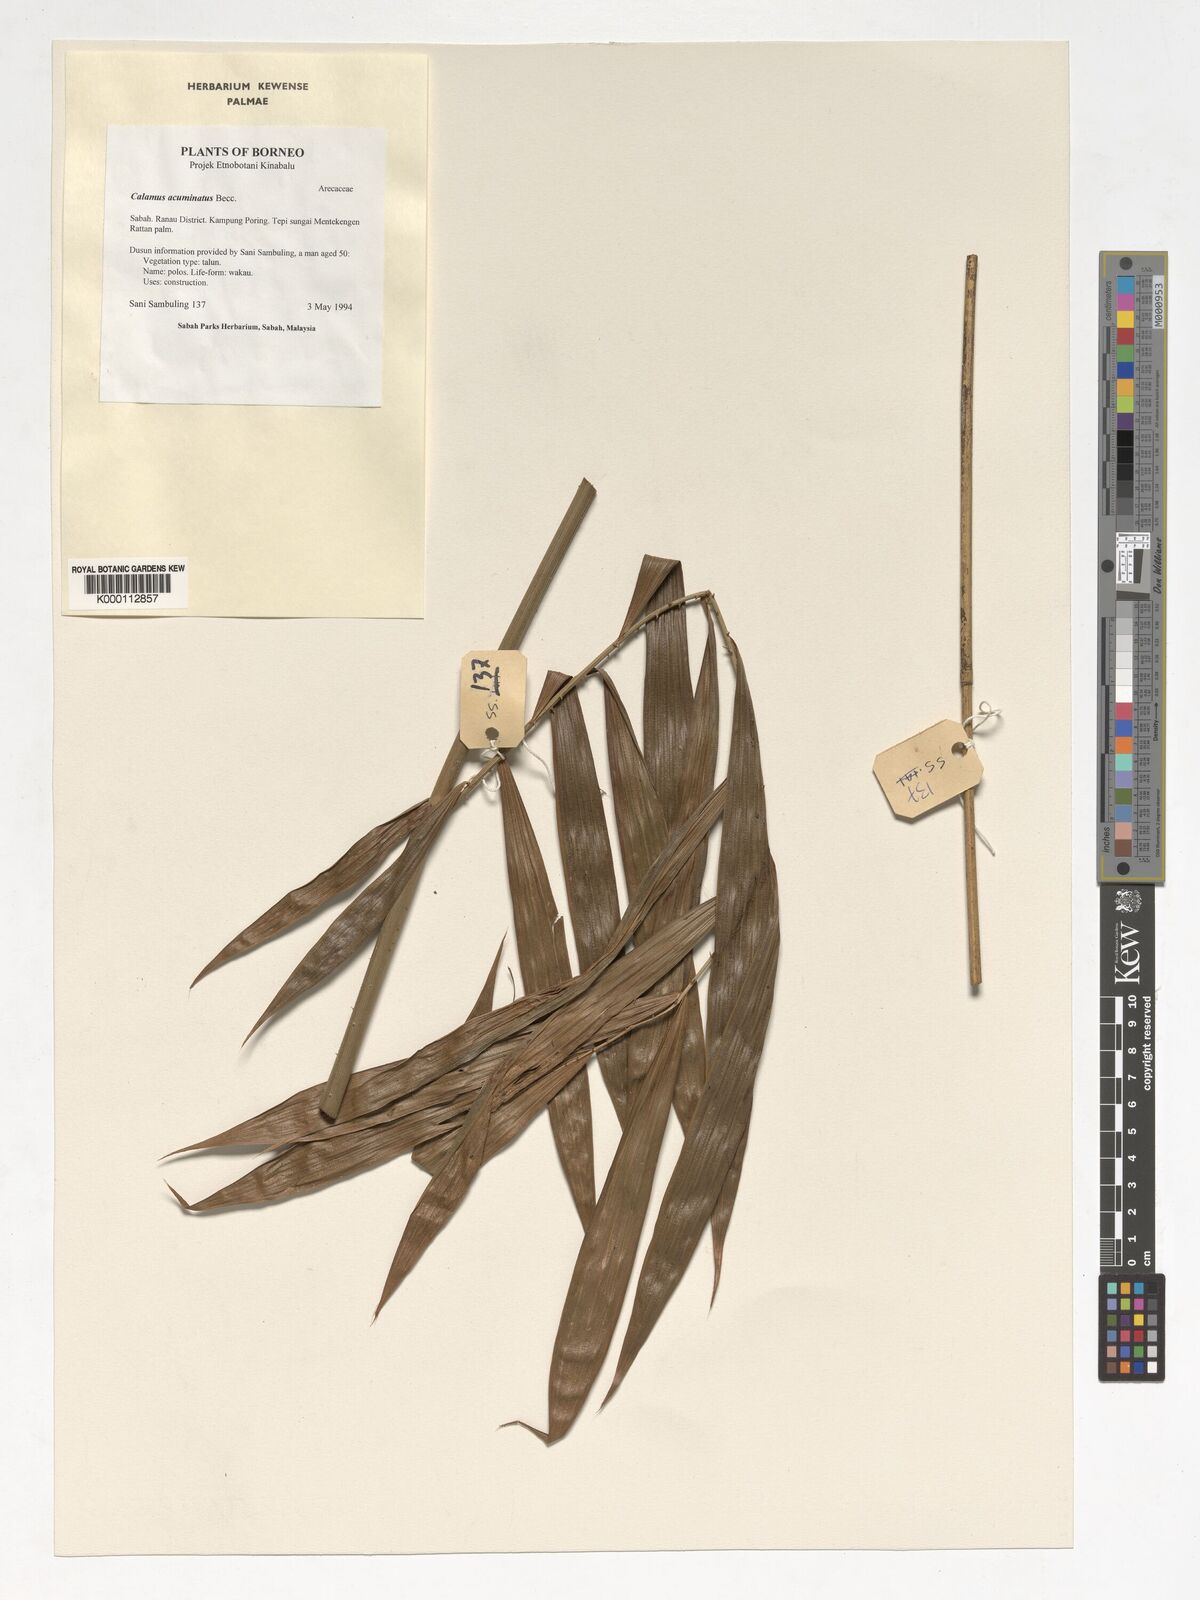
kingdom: Plantae
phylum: Tracheophyta
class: Liliopsida
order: Arecales
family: Arecaceae
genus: Calamus
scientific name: Calamus javensis
